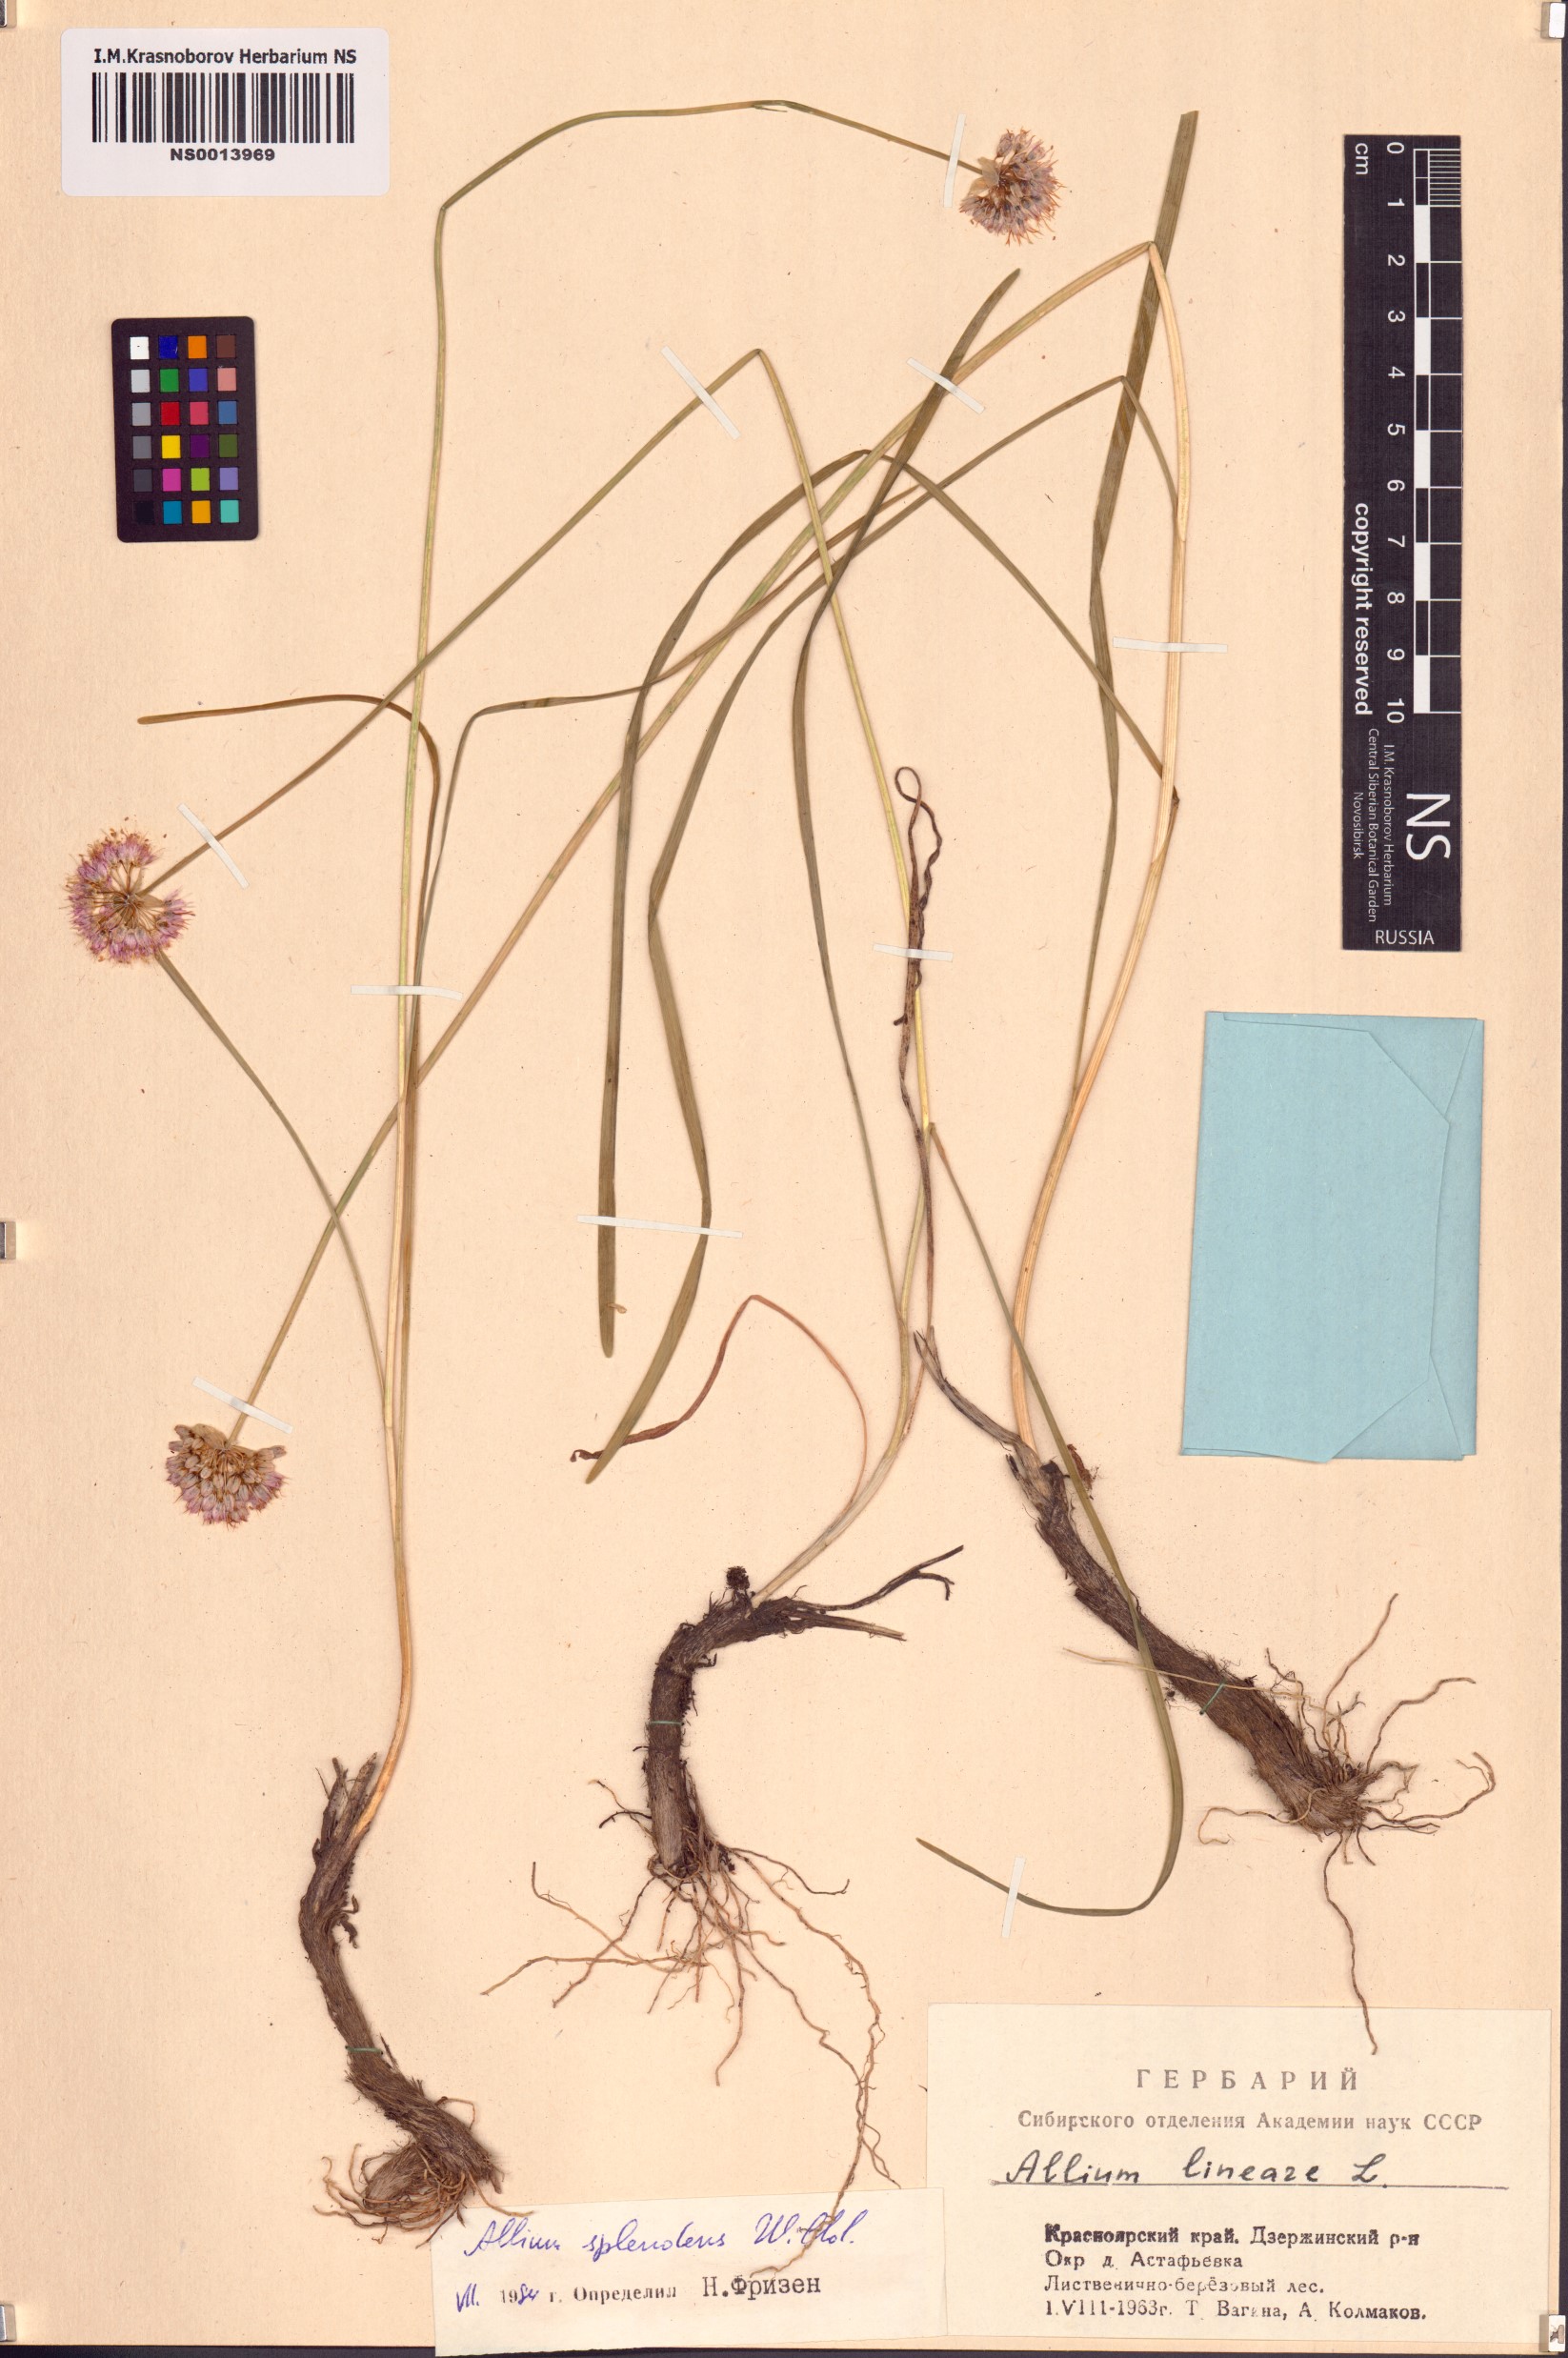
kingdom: Plantae
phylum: Tracheophyta
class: Liliopsida
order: Asparagales
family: Amaryllidaceae
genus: Allium
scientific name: Allium splendens
